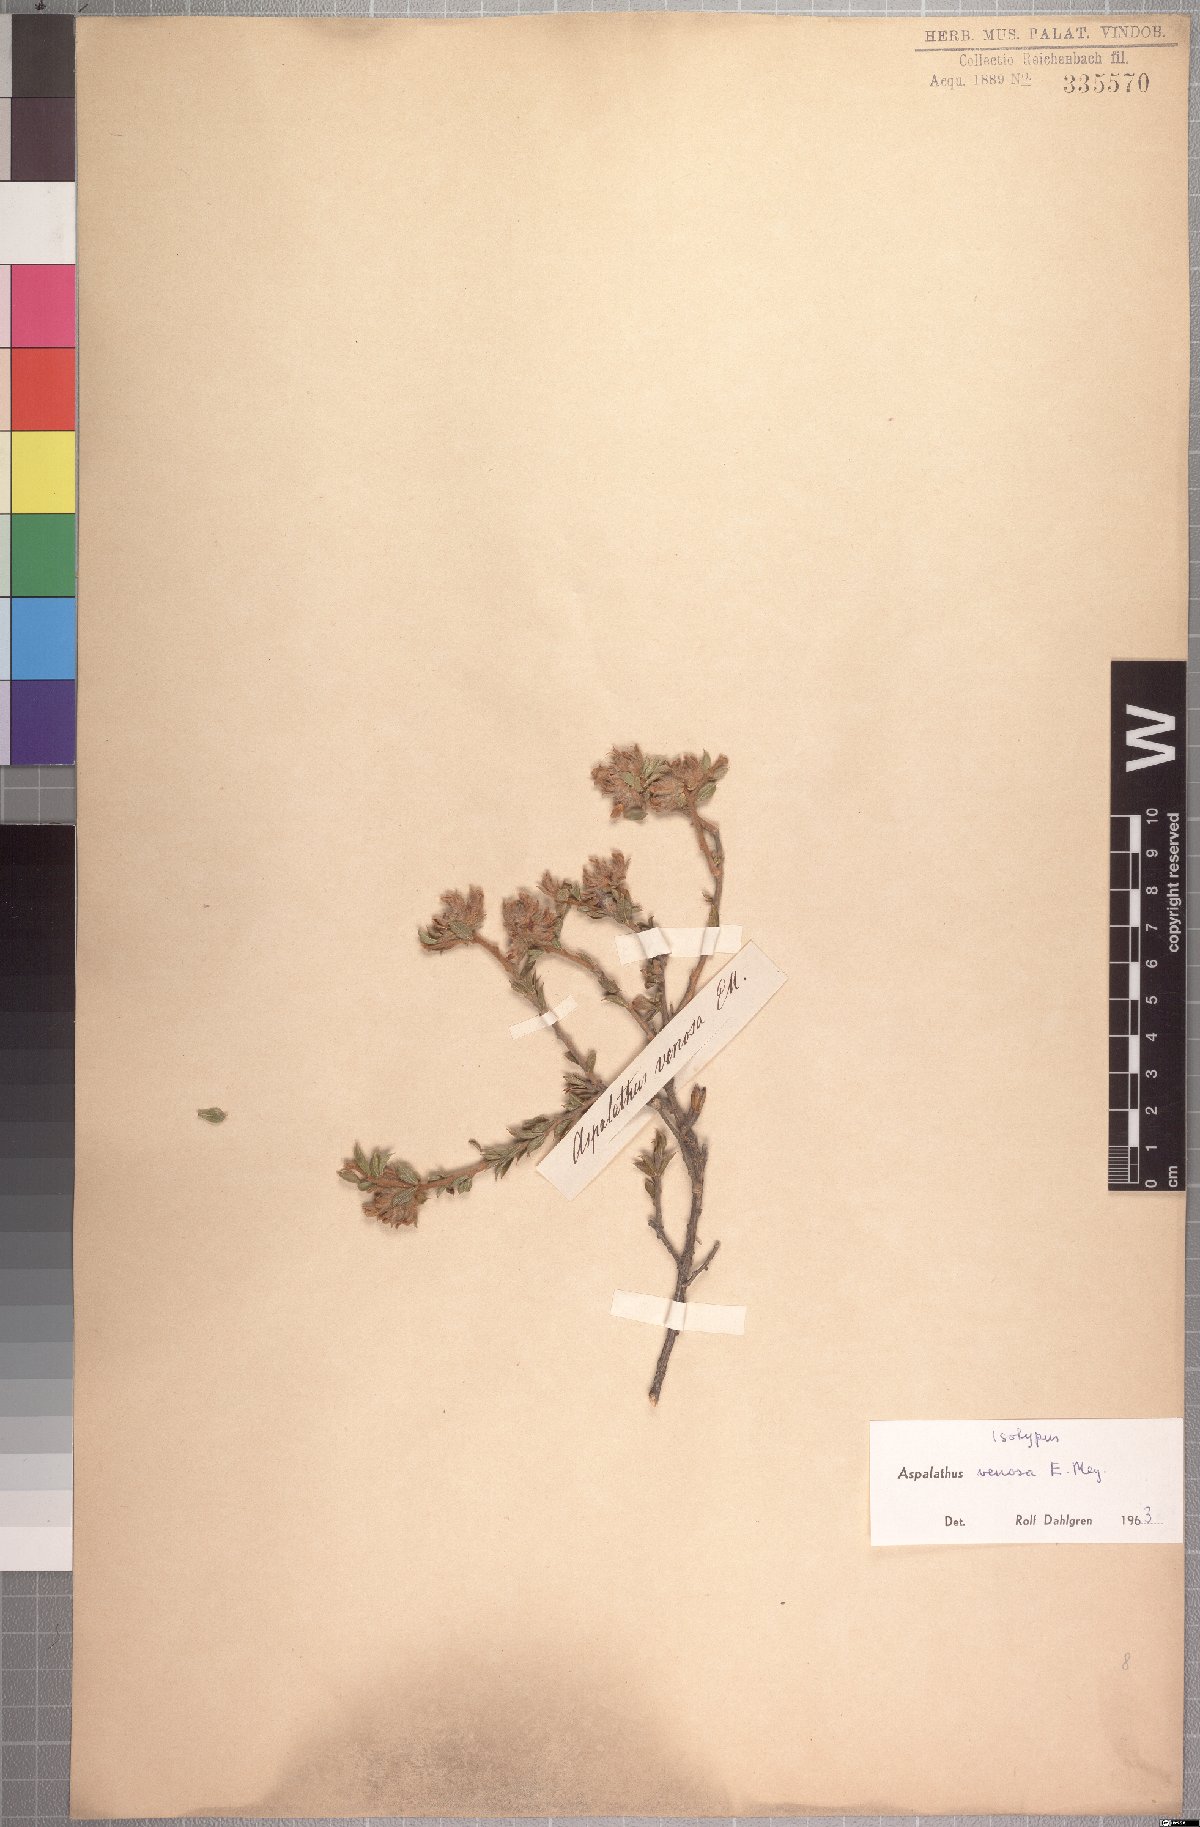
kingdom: Plantae
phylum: Tracheophyta
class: Magnoliopsida
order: Fabales
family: Fabaceae
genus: Aspalathus
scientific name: Aspalathus venosa
